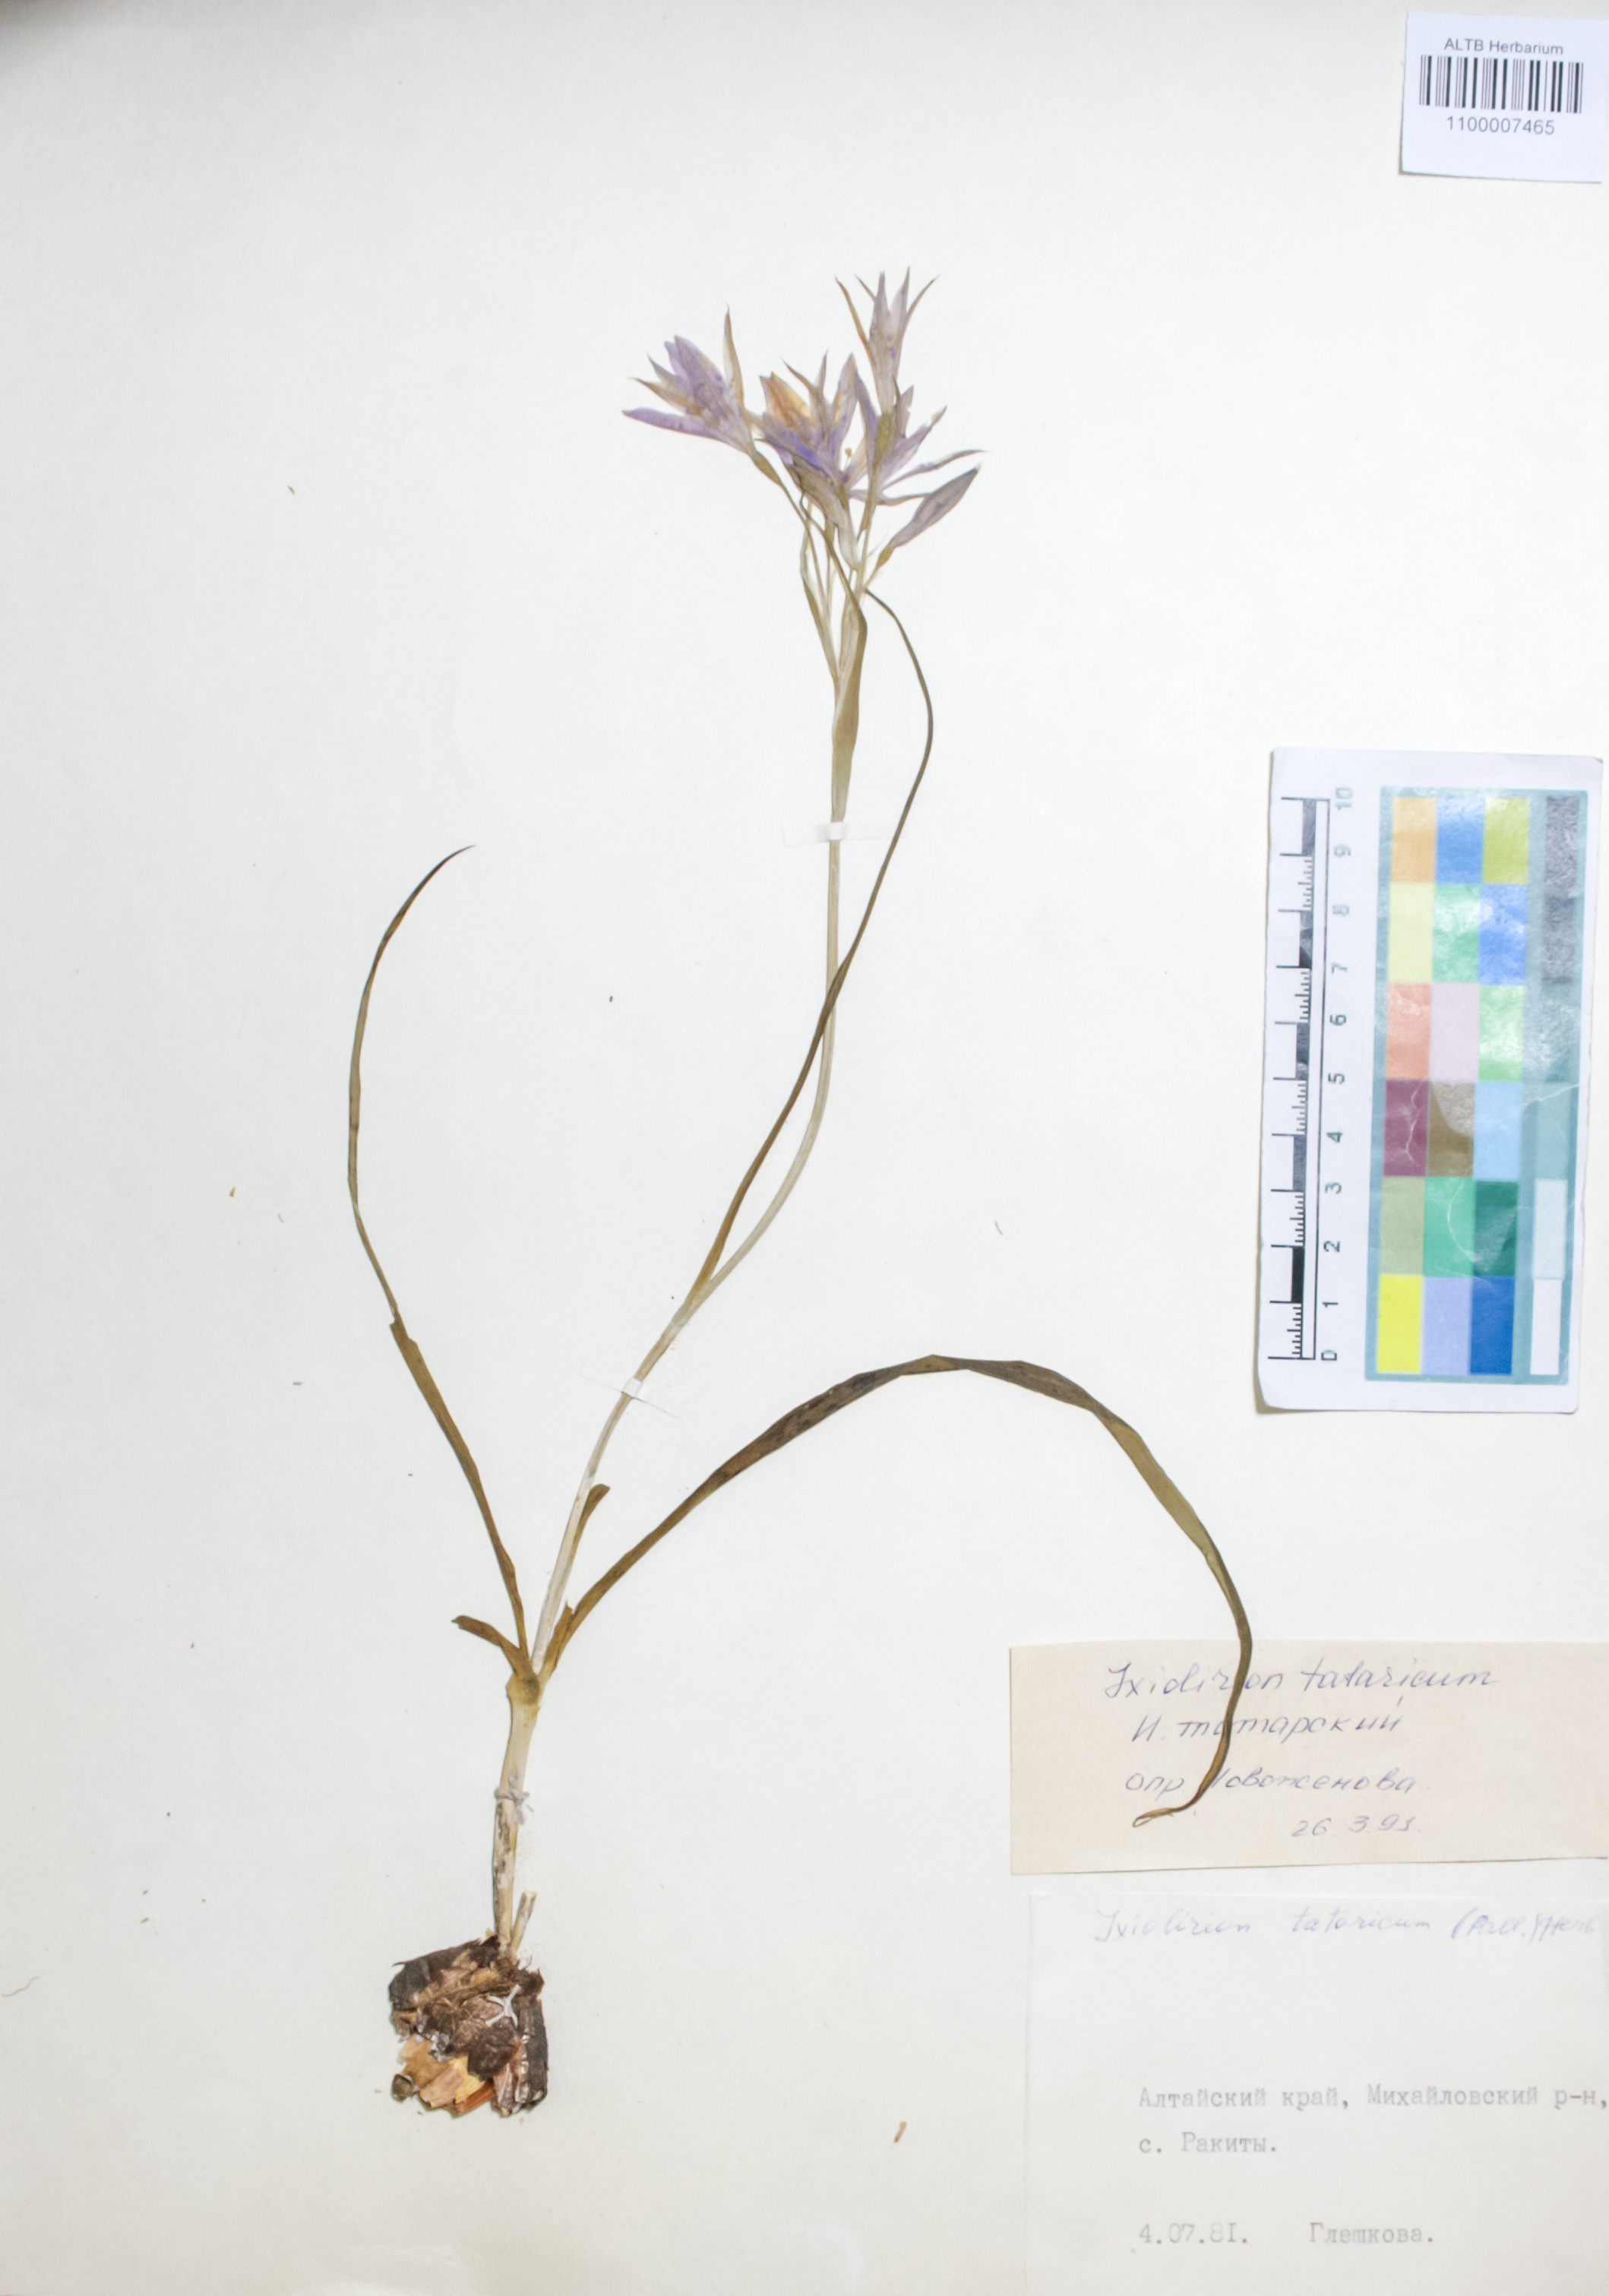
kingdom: Plantae
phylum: Tracheophyta
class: Liliopsida
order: Asparagales
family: Ixioliriaceae
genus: Ixiolirion
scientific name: Ixiolirion tataricum
